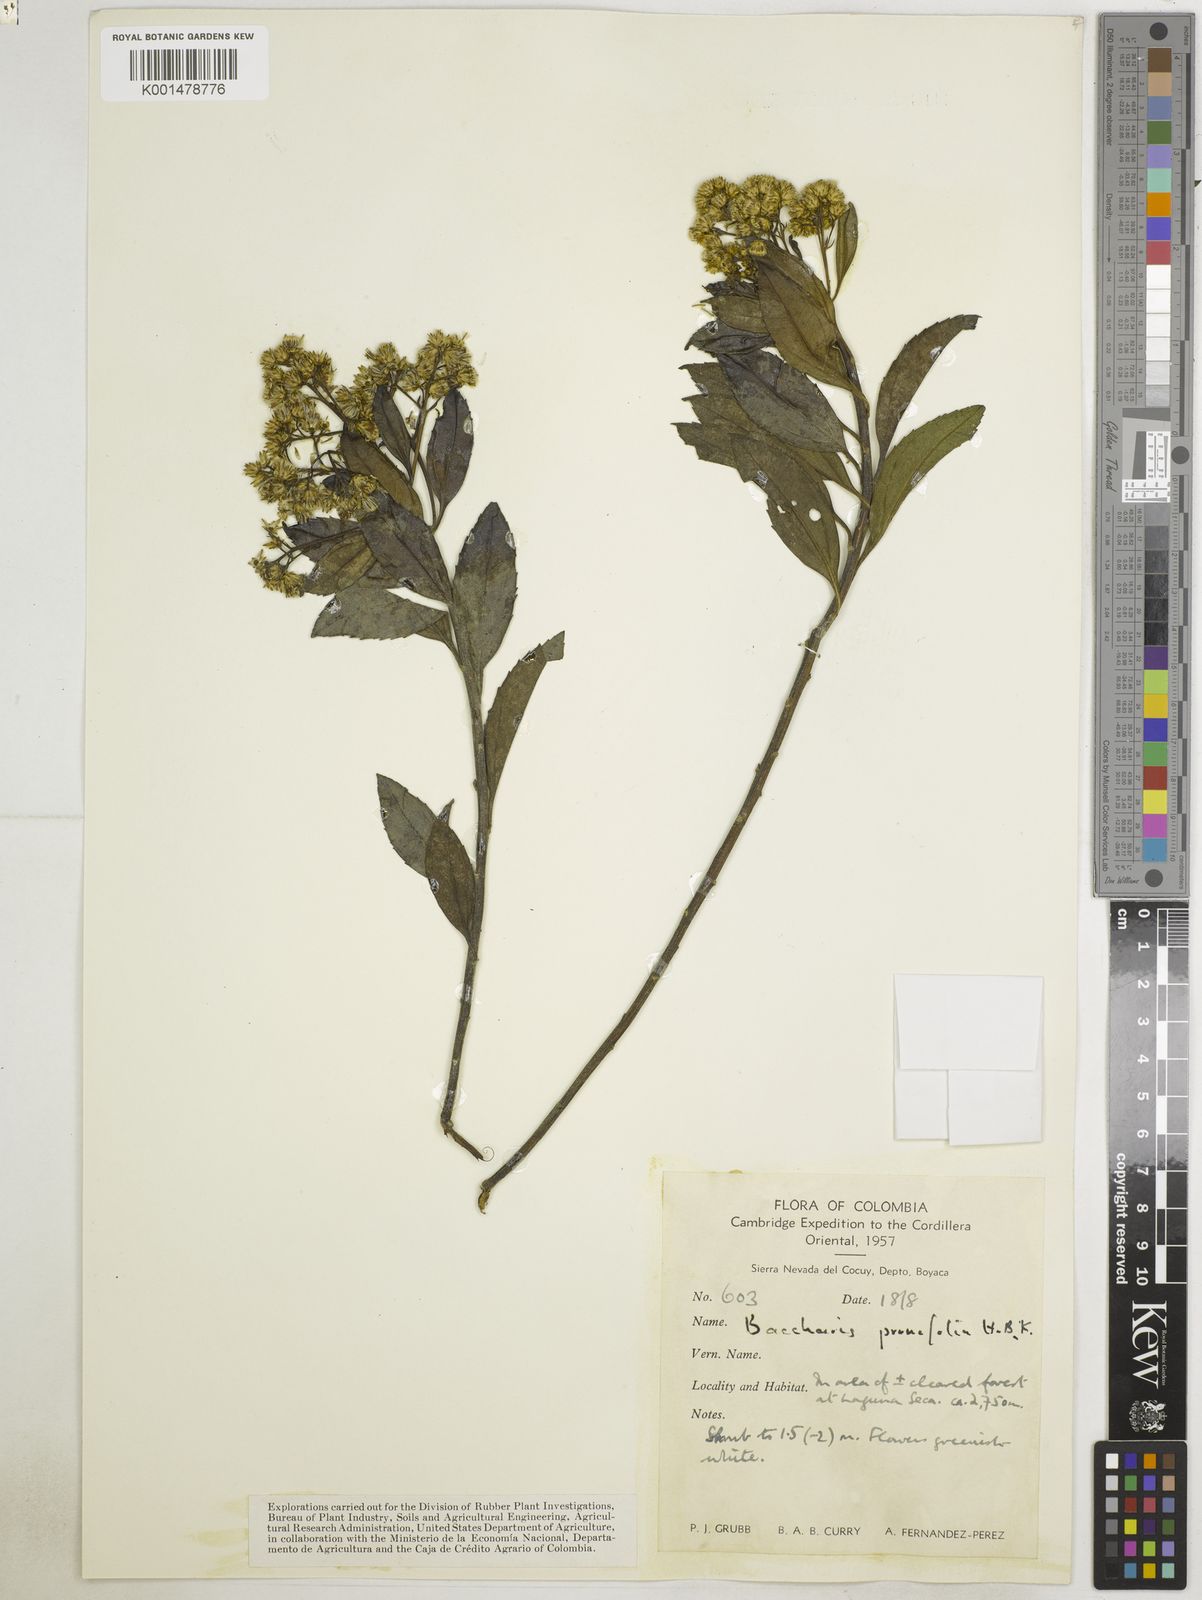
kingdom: Plantae
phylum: Tracheophyta
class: Magnoliopsida
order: Asterales
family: Asteraceae
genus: Baccharis
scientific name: Baccharis prunifolia
